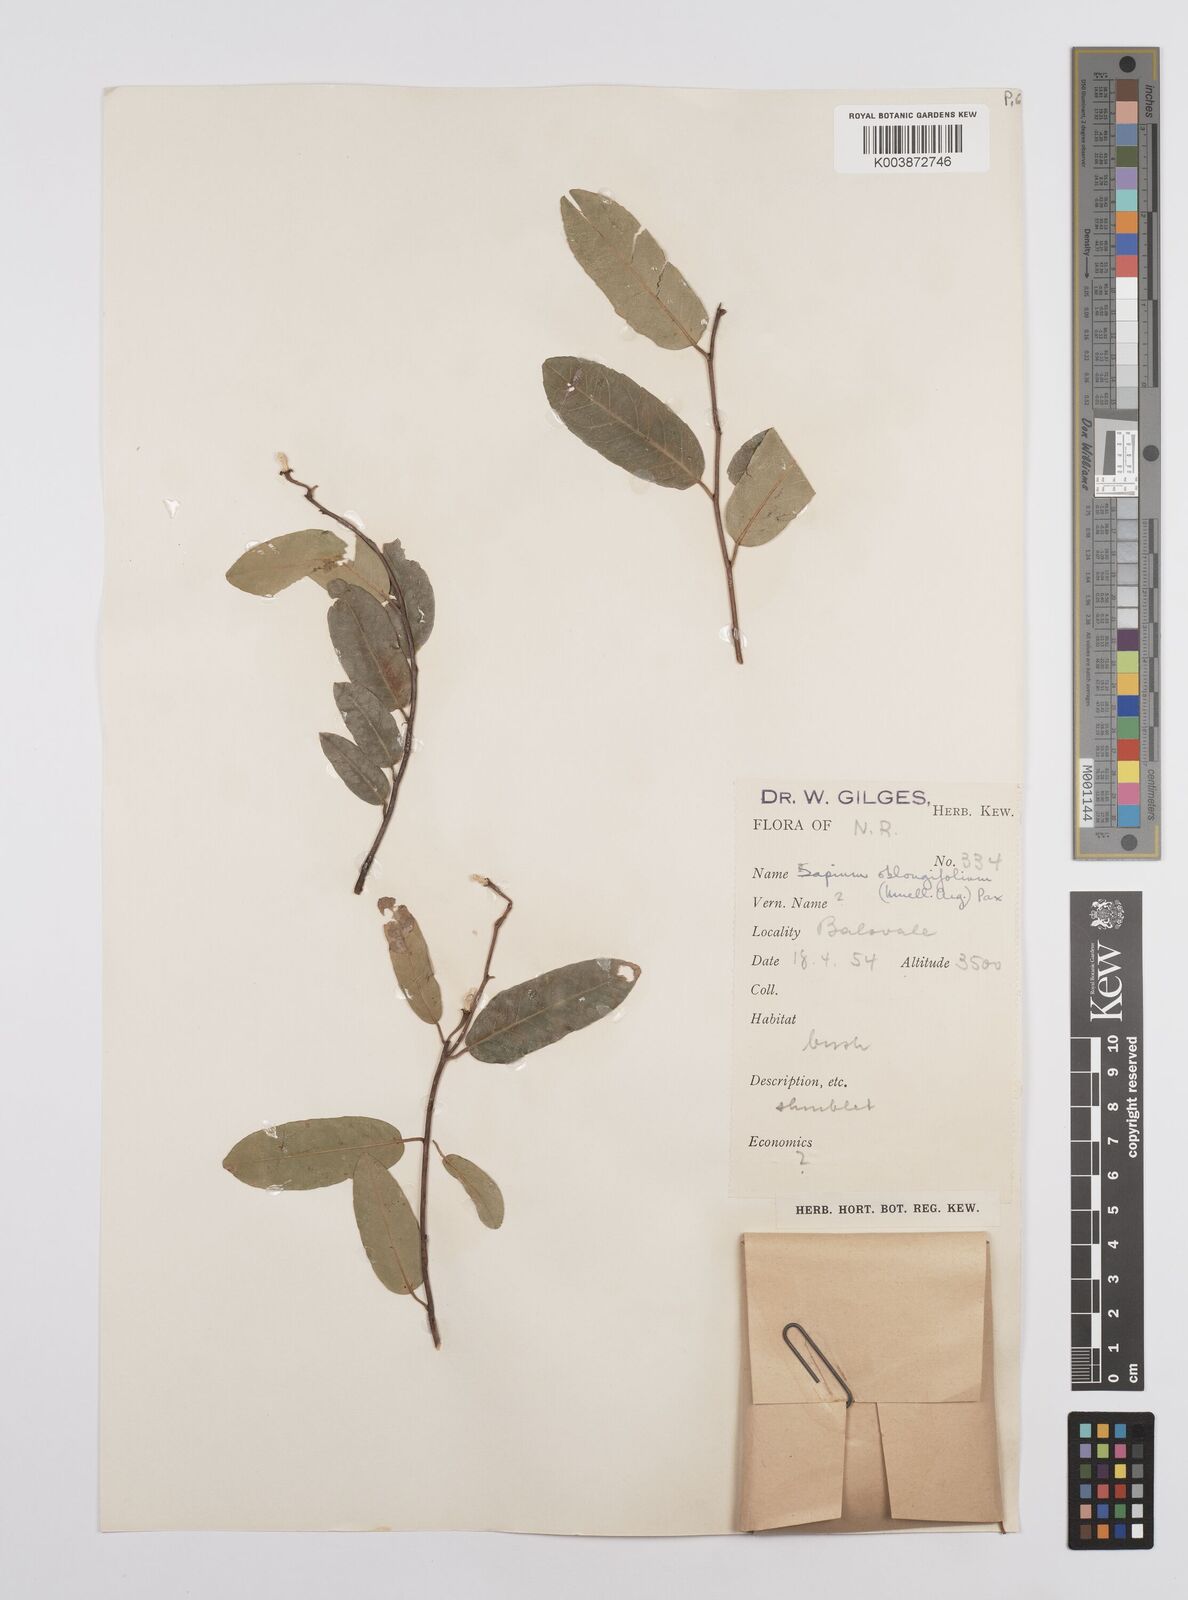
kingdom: Plantae
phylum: Tracheophyta
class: Magnoliopsida
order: Malpighiales
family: Euphorbiaceae
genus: Sclerocroton
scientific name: Sclerocroton oblongifolius
